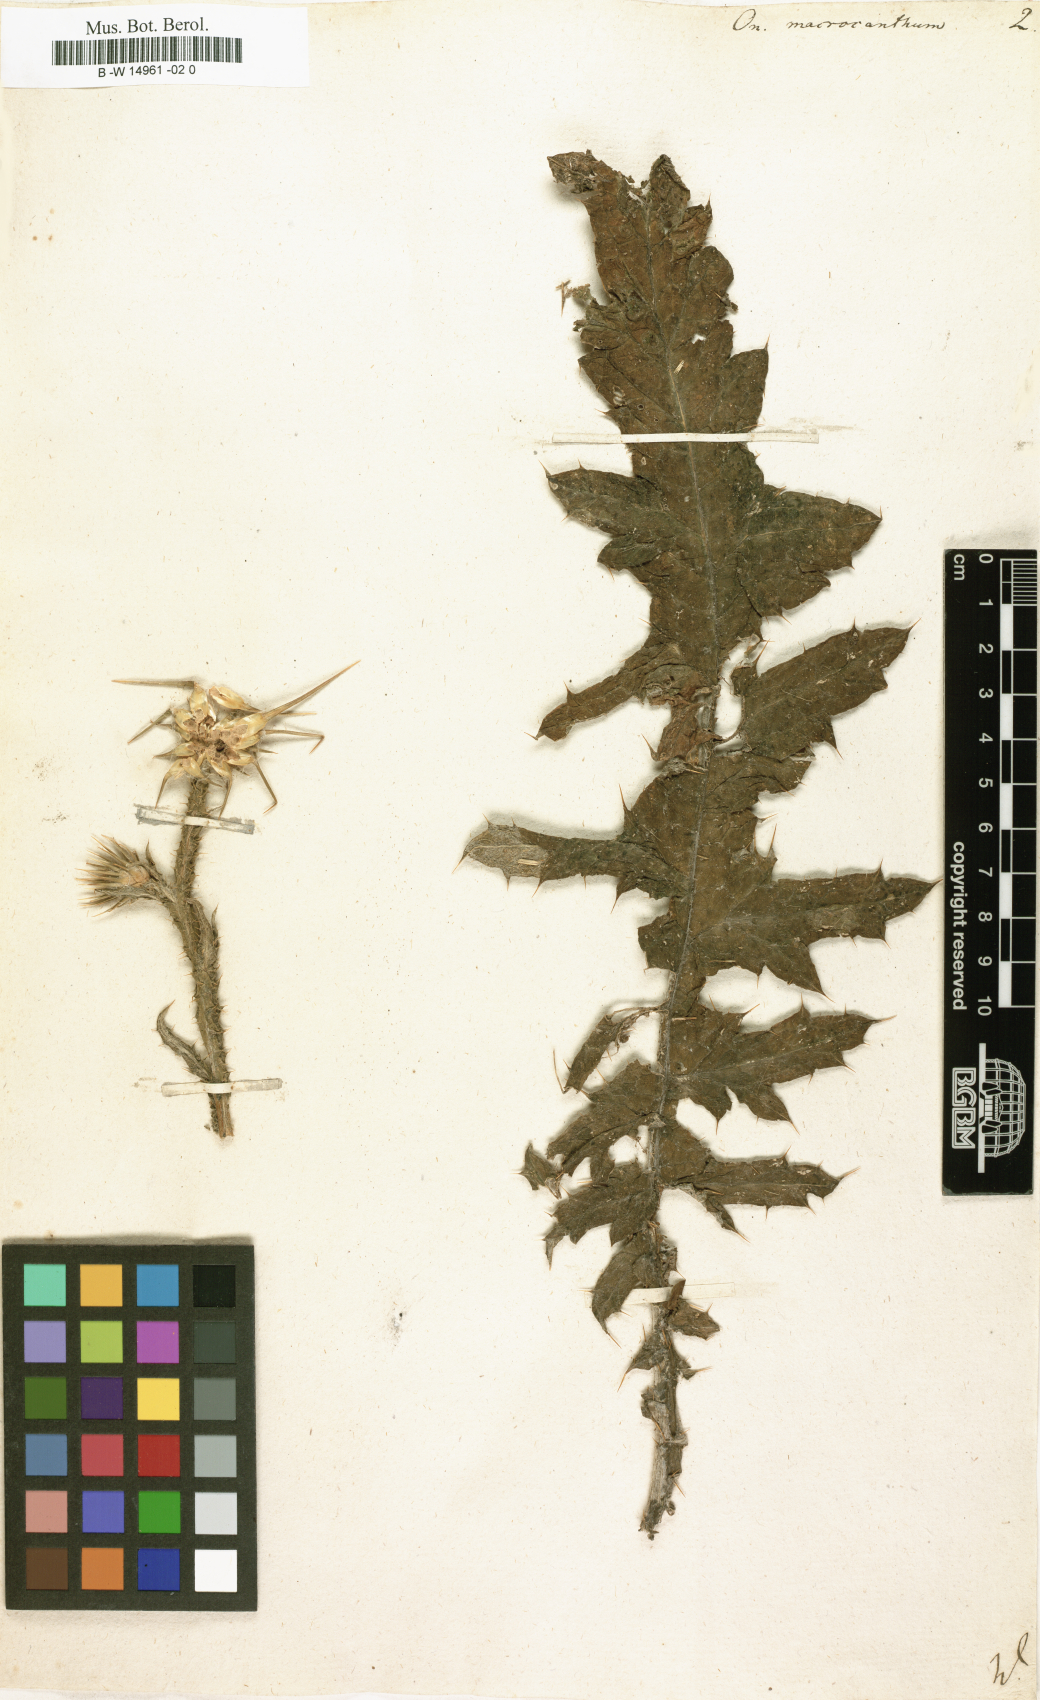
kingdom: Plantae
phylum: Tracheophyta
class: Magnoliopsida
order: Asterales
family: Asteraceae
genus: Onopordum
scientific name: Onopordum macrocanthum
